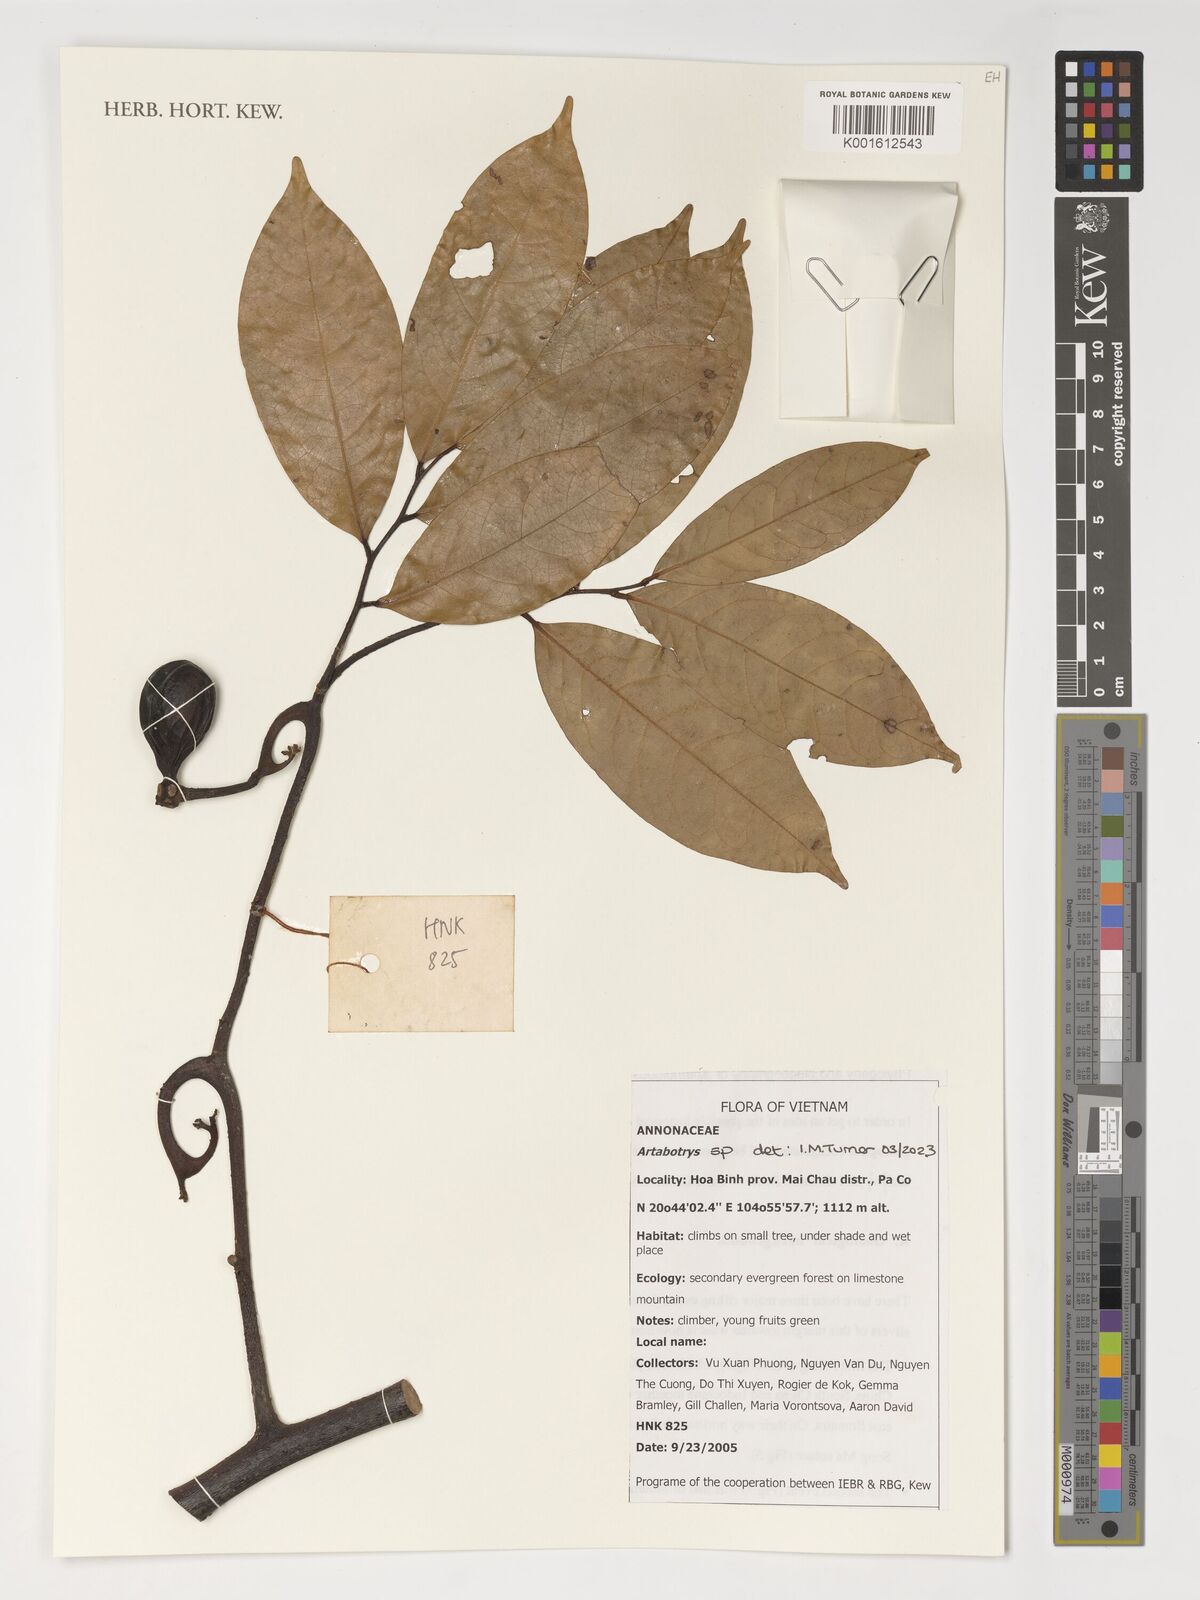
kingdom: Plantae
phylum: Tracheophyta
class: Magnoliopsida
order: Magnoliales
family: Annonaceae
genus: Artabotrys
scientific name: Artabotrys
